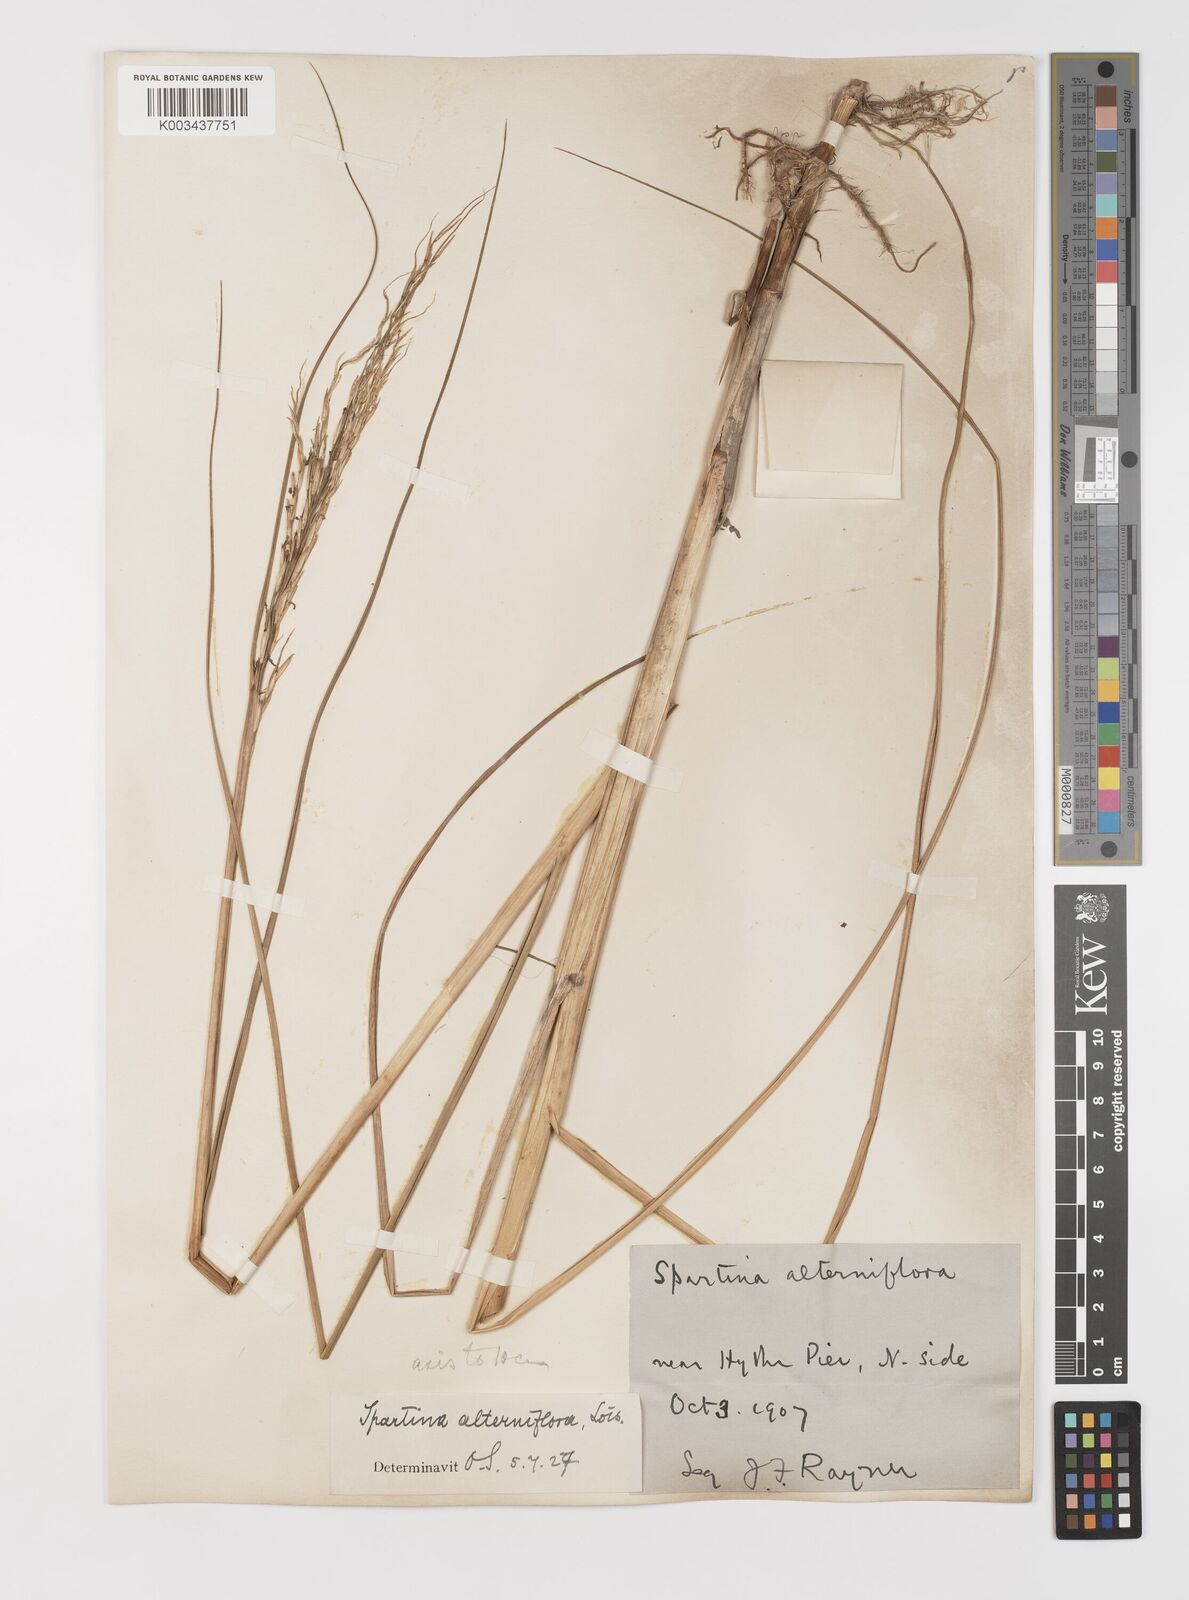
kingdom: Plantae
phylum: Tracheophyta
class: Liliopsida
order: Poales
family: Poaceae
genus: Sporobolus
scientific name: Sporobolus alterniflorus
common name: Atlantic cordgrass
